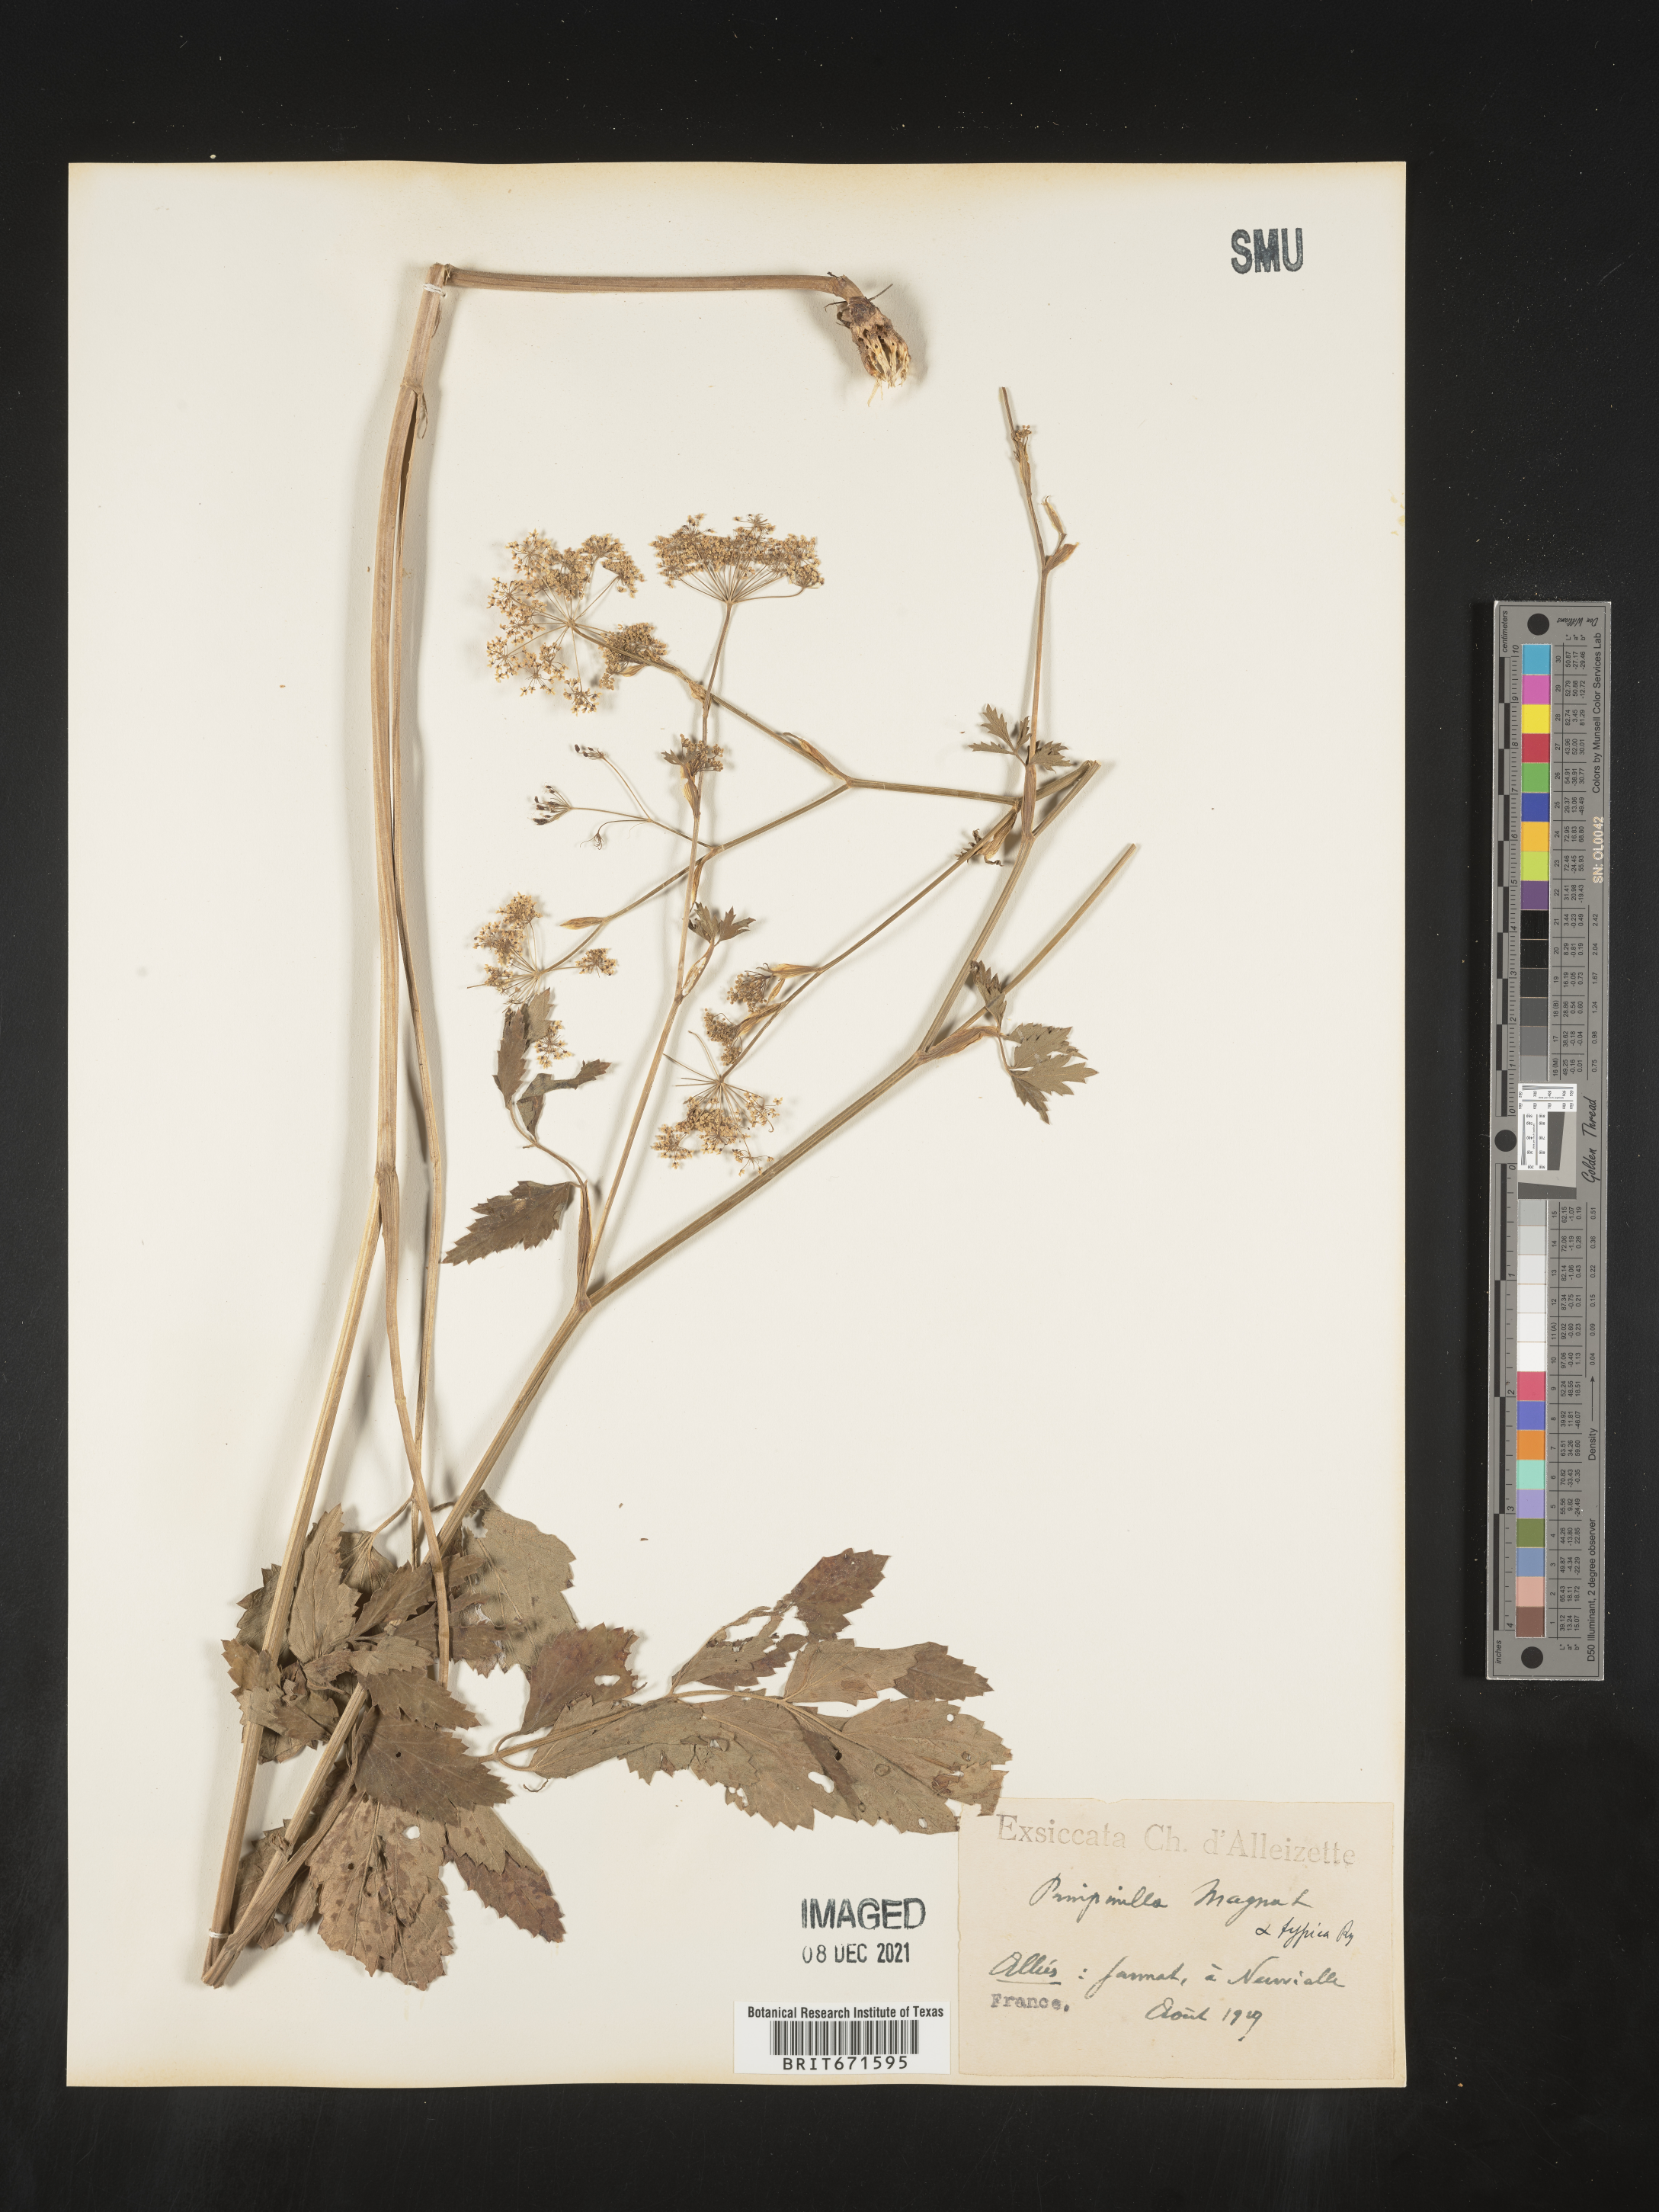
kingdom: Plantae
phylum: Tracheophyta
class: Magnoliopsida
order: Apiales
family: Apiaceae
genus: Pimpinella
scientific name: Pimpinella
